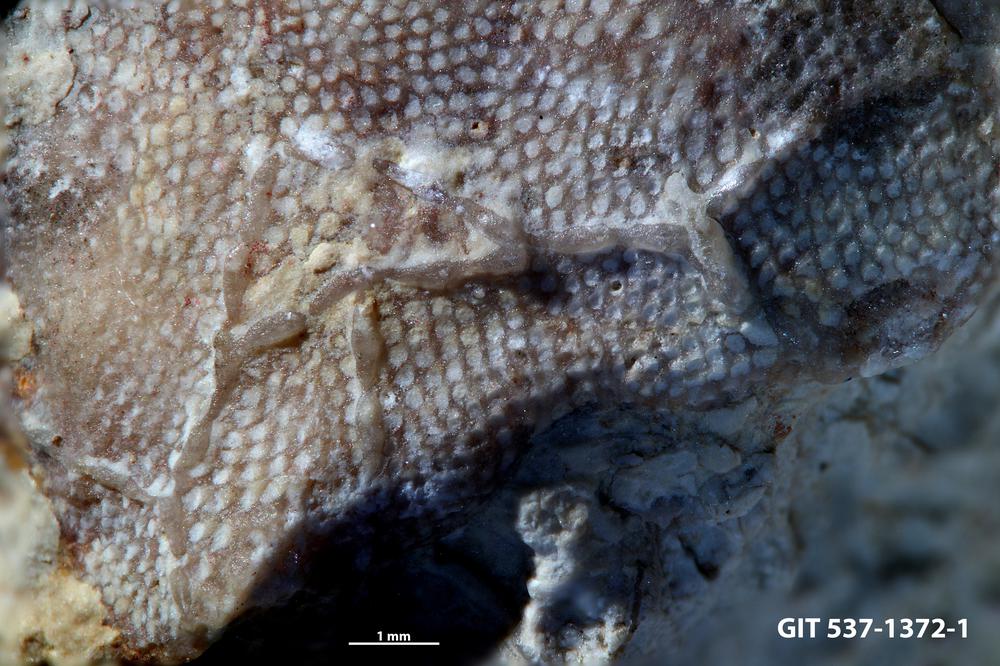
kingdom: Animalia
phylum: Bryozoa
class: Stenolaemata
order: Cyclostomatida
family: Corynotrypidae
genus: Corynotrypa
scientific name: Corynotrypa schucherti
